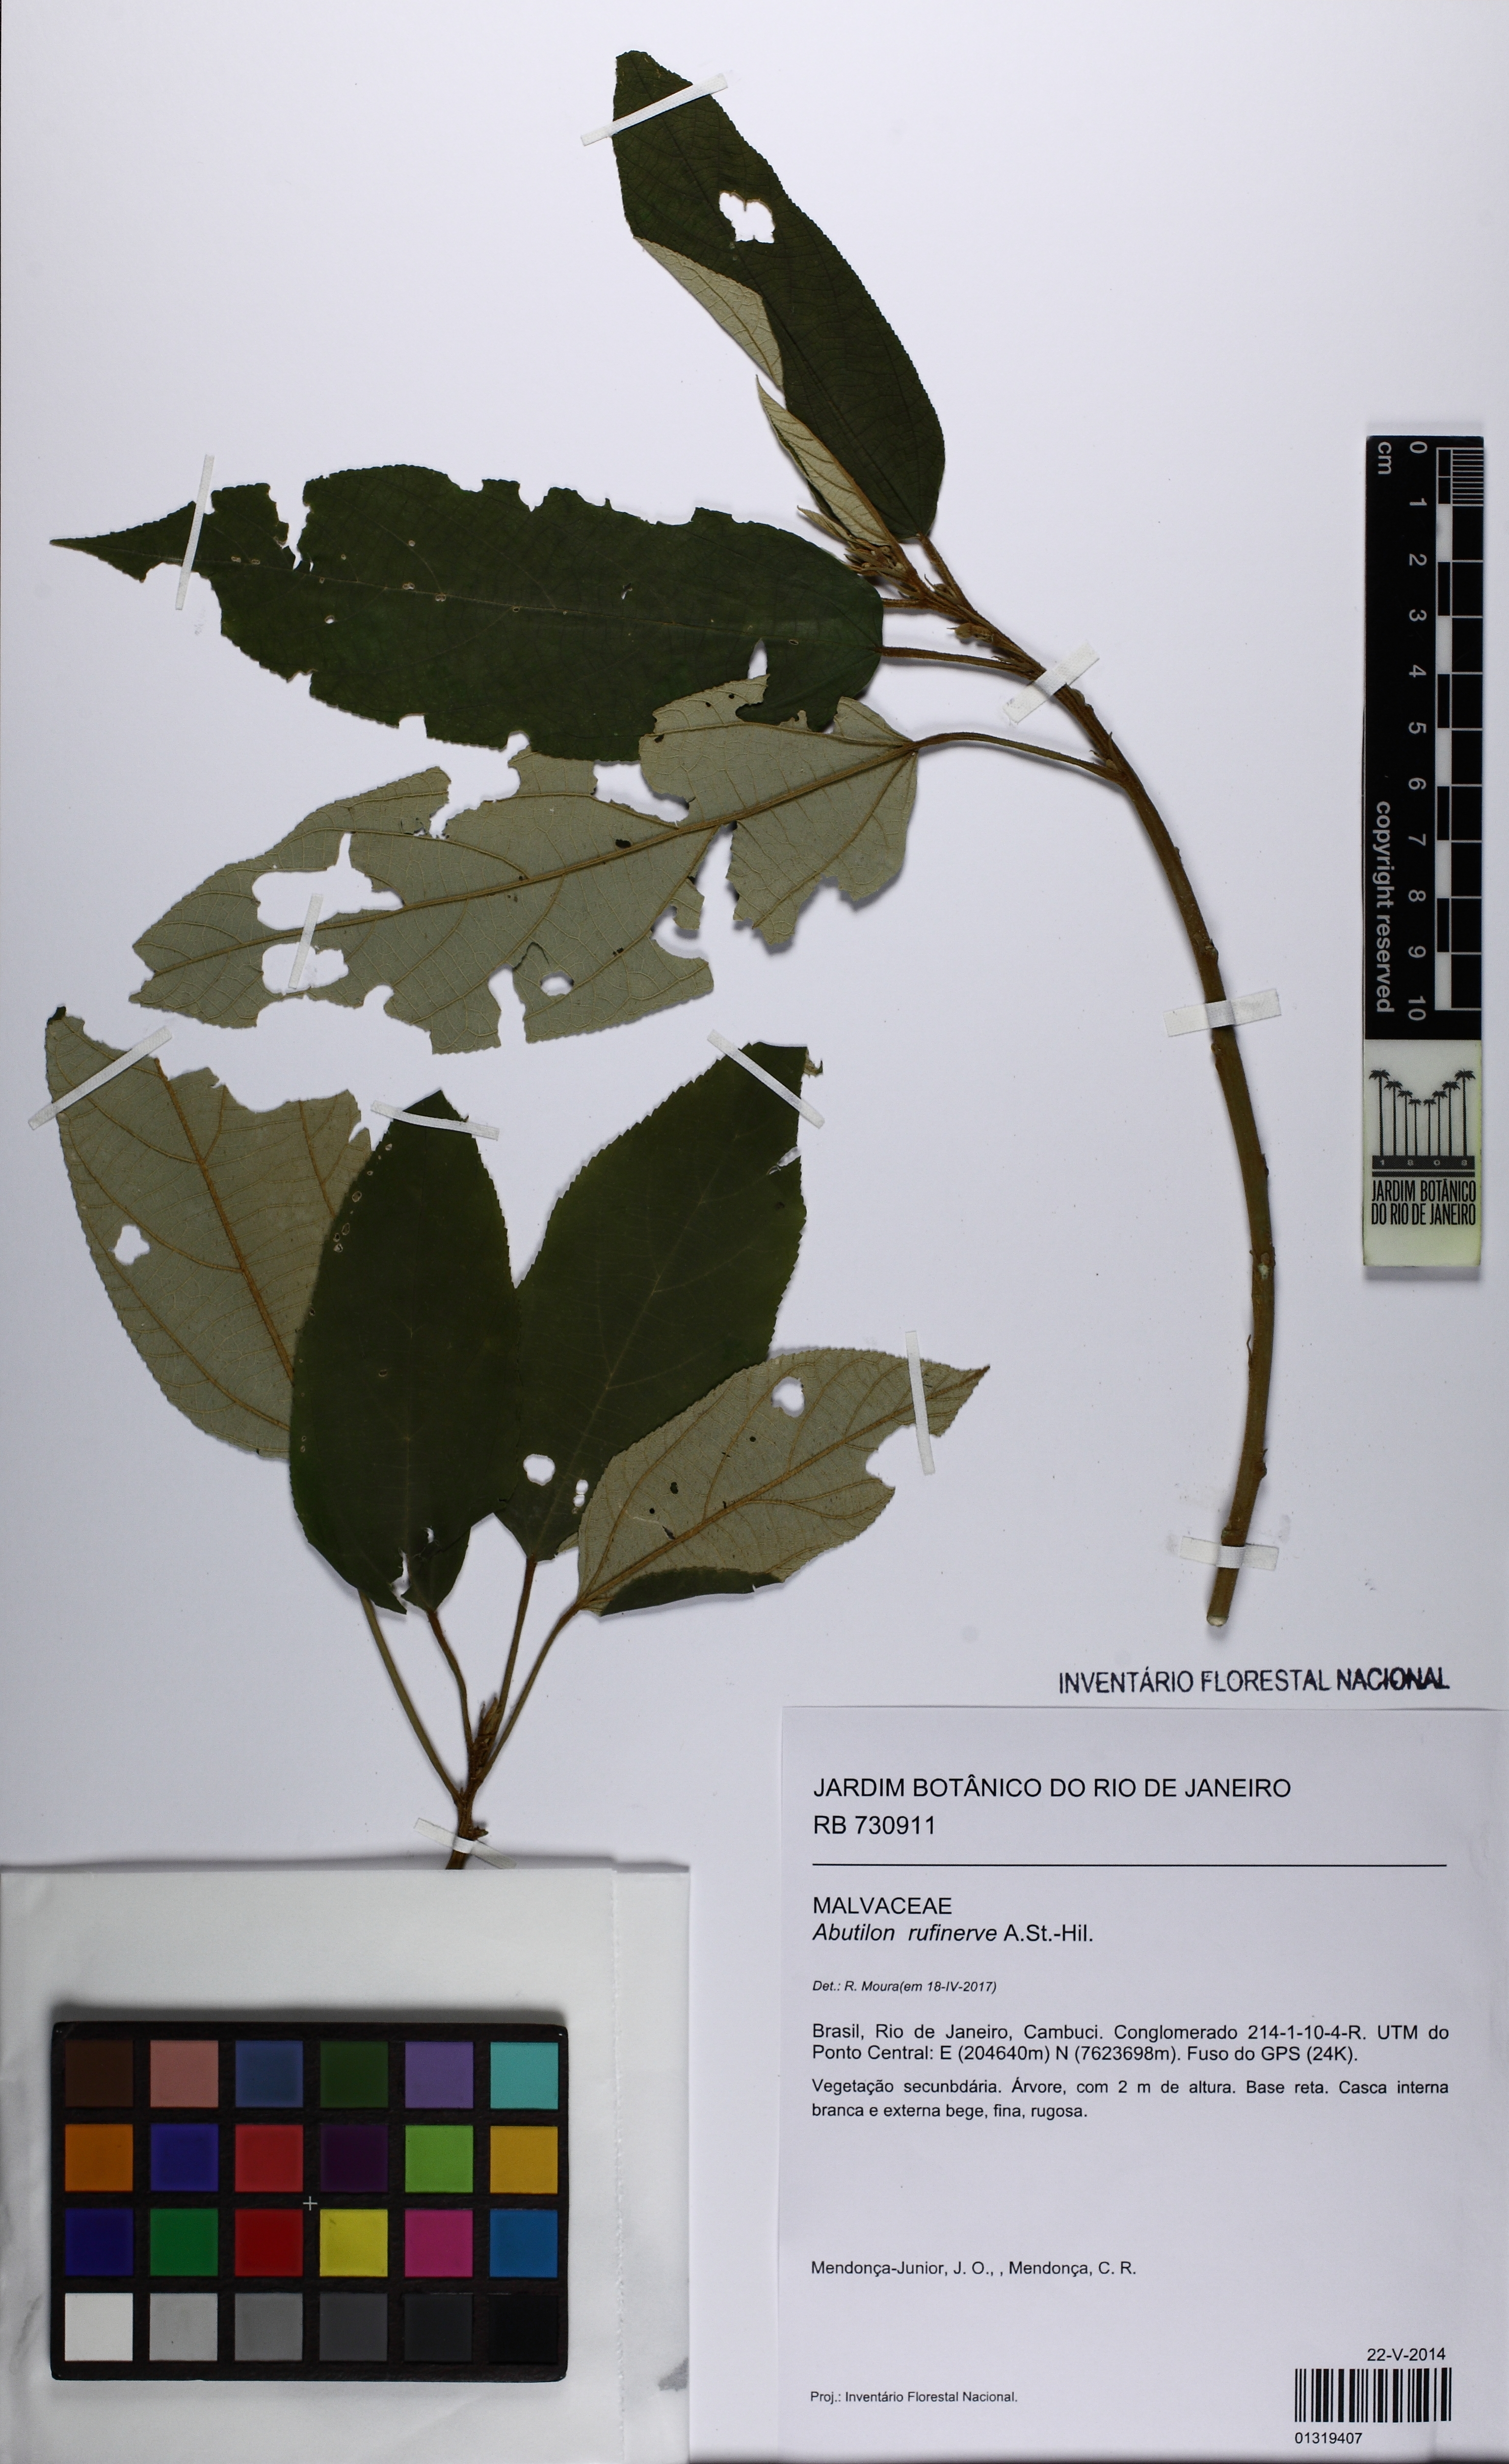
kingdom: Plantae
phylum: Tracheophyta
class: Magnoliopsida
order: Malvales
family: Malvaceae
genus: Callianthe
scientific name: Callianthe rufinerva
